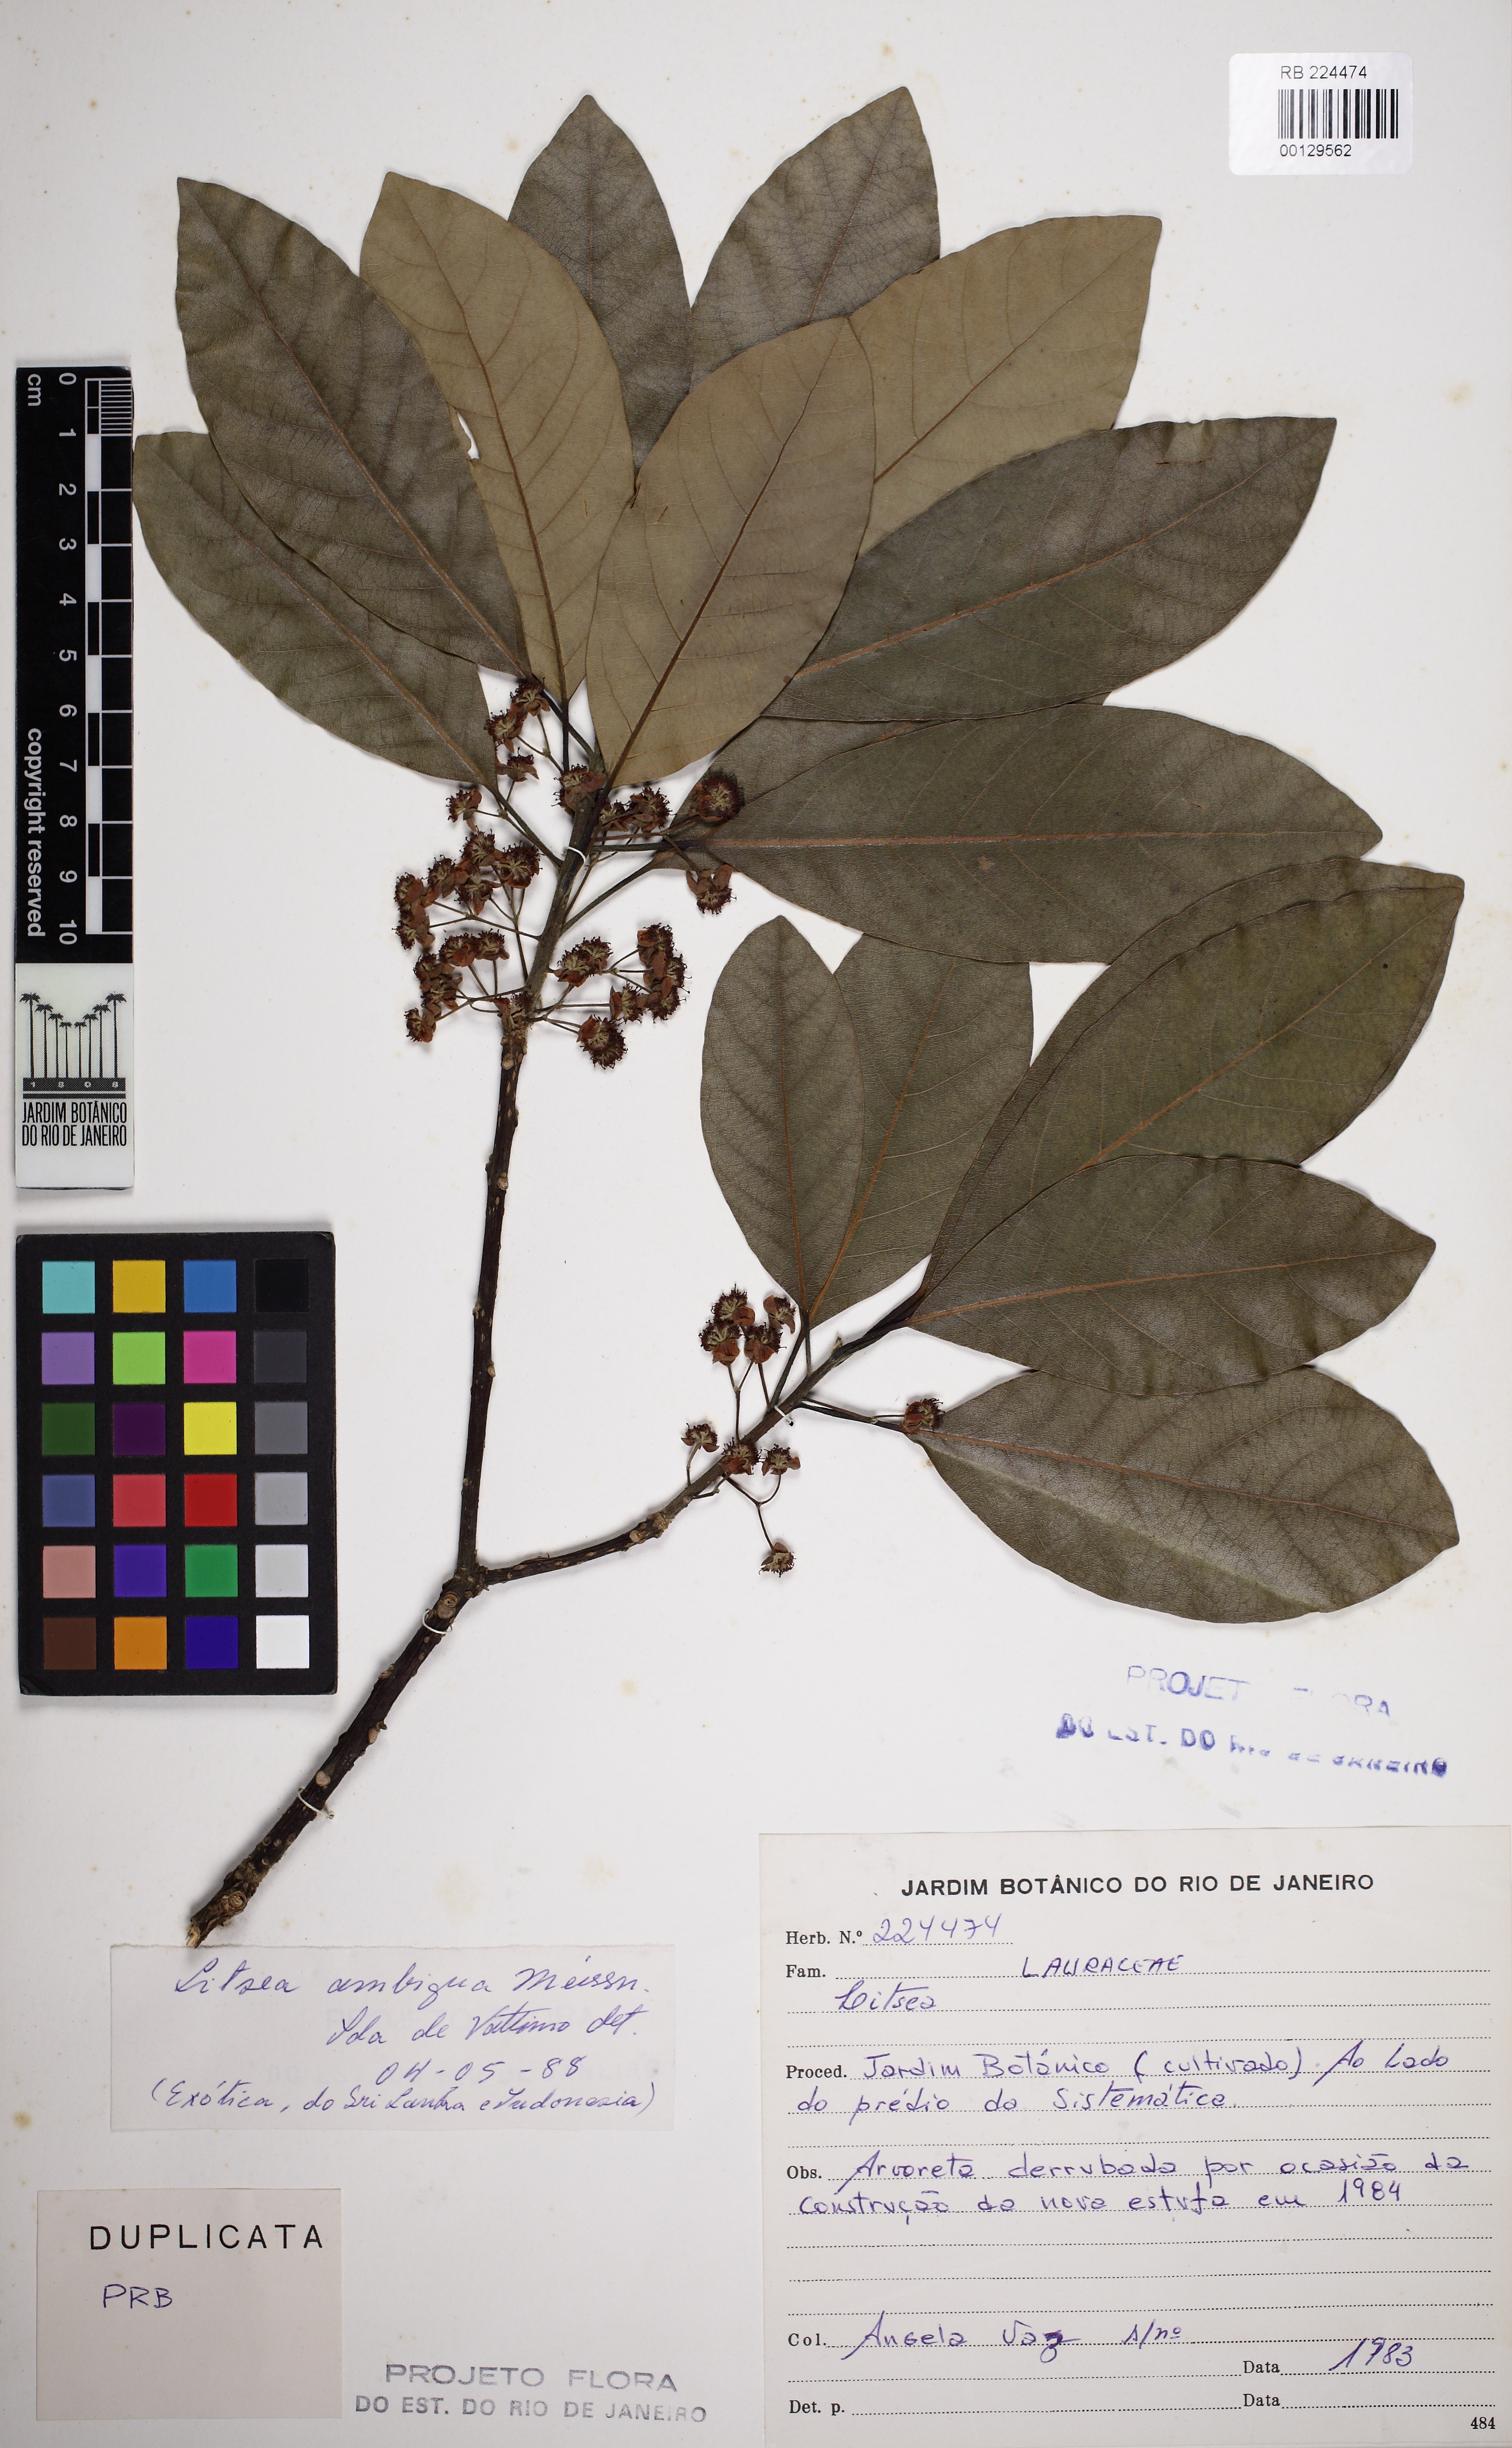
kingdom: Plantae
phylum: Tracheophyta
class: Magnoliopsida
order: Laurales
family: Lauraceae
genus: Litsea
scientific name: Litsea glutinosa
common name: Indian-laurel
